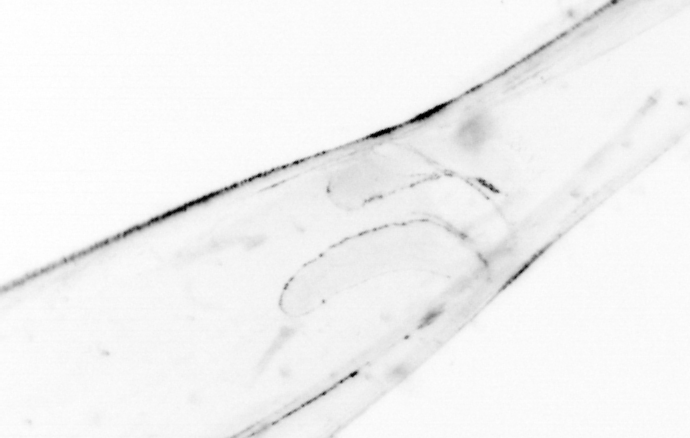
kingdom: Animalia
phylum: Chordata
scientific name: Chordata
